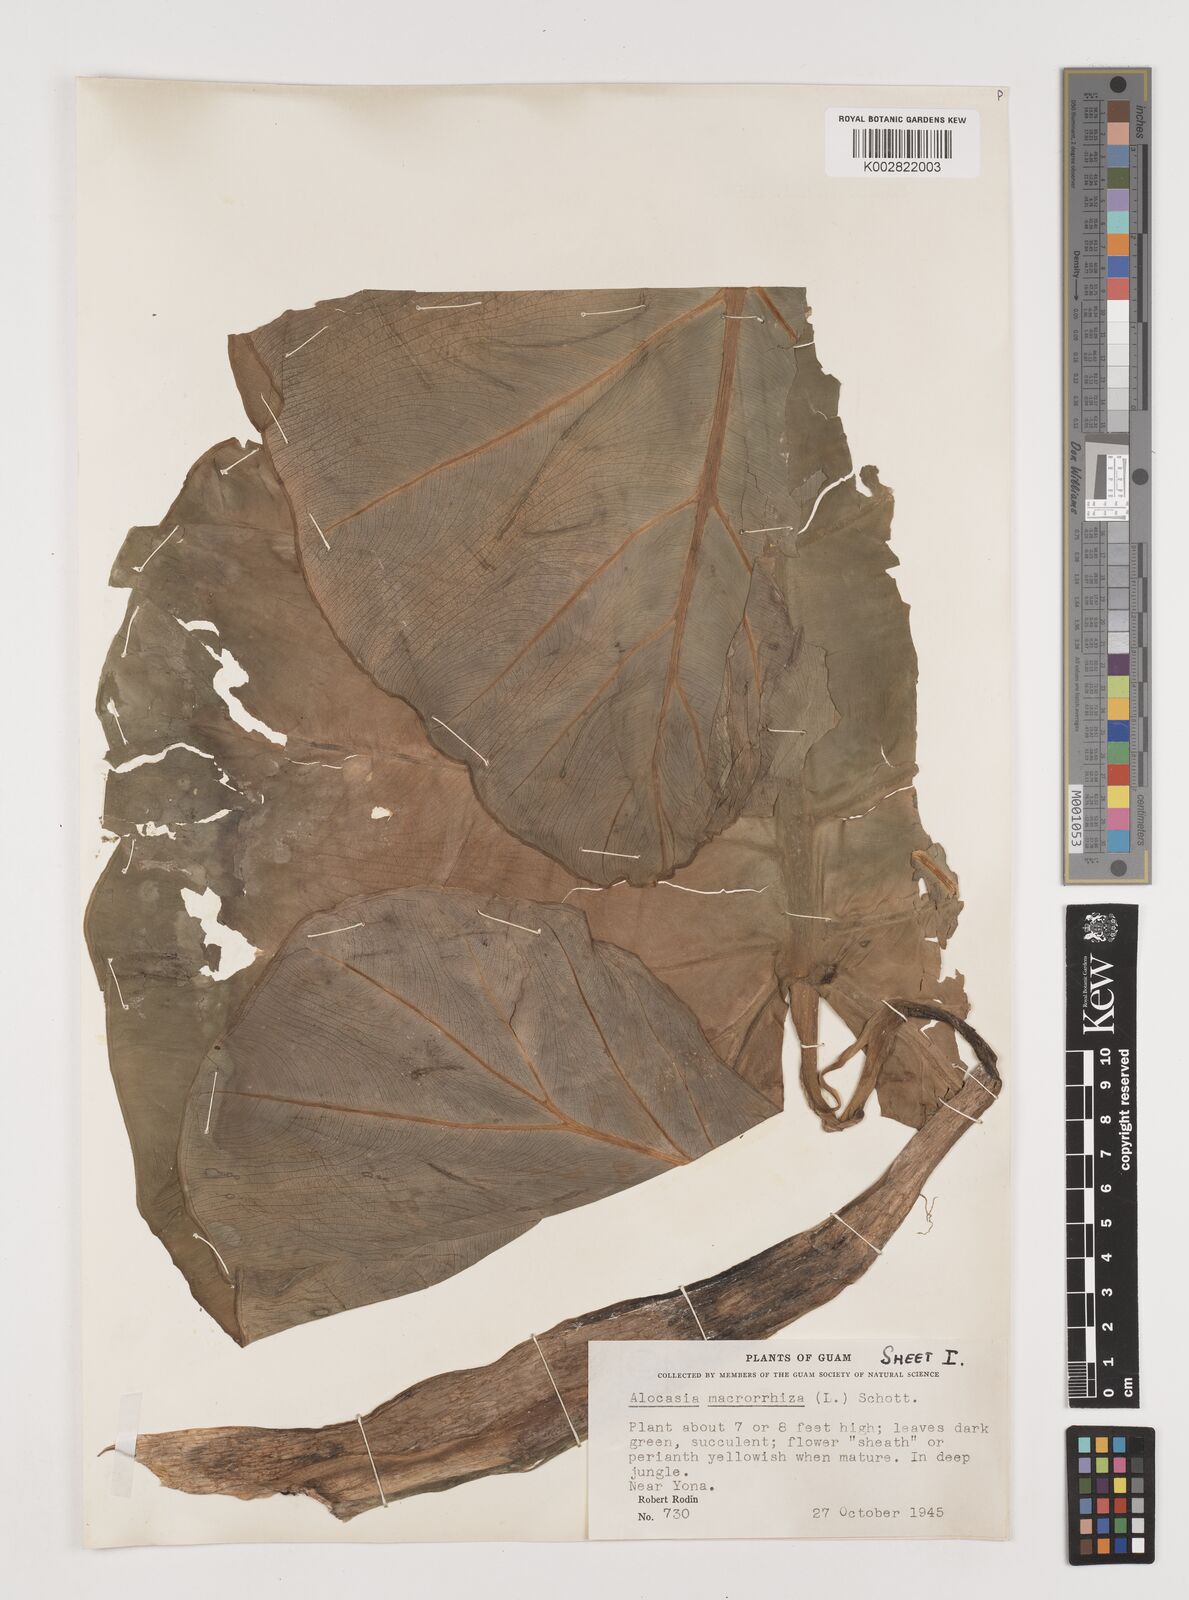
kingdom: Plantae
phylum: Tracheophyta
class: Liliopsida
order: Alismatales
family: Araceae
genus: Alocasia
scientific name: Alocasia macrorrhizos
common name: Giant taro
